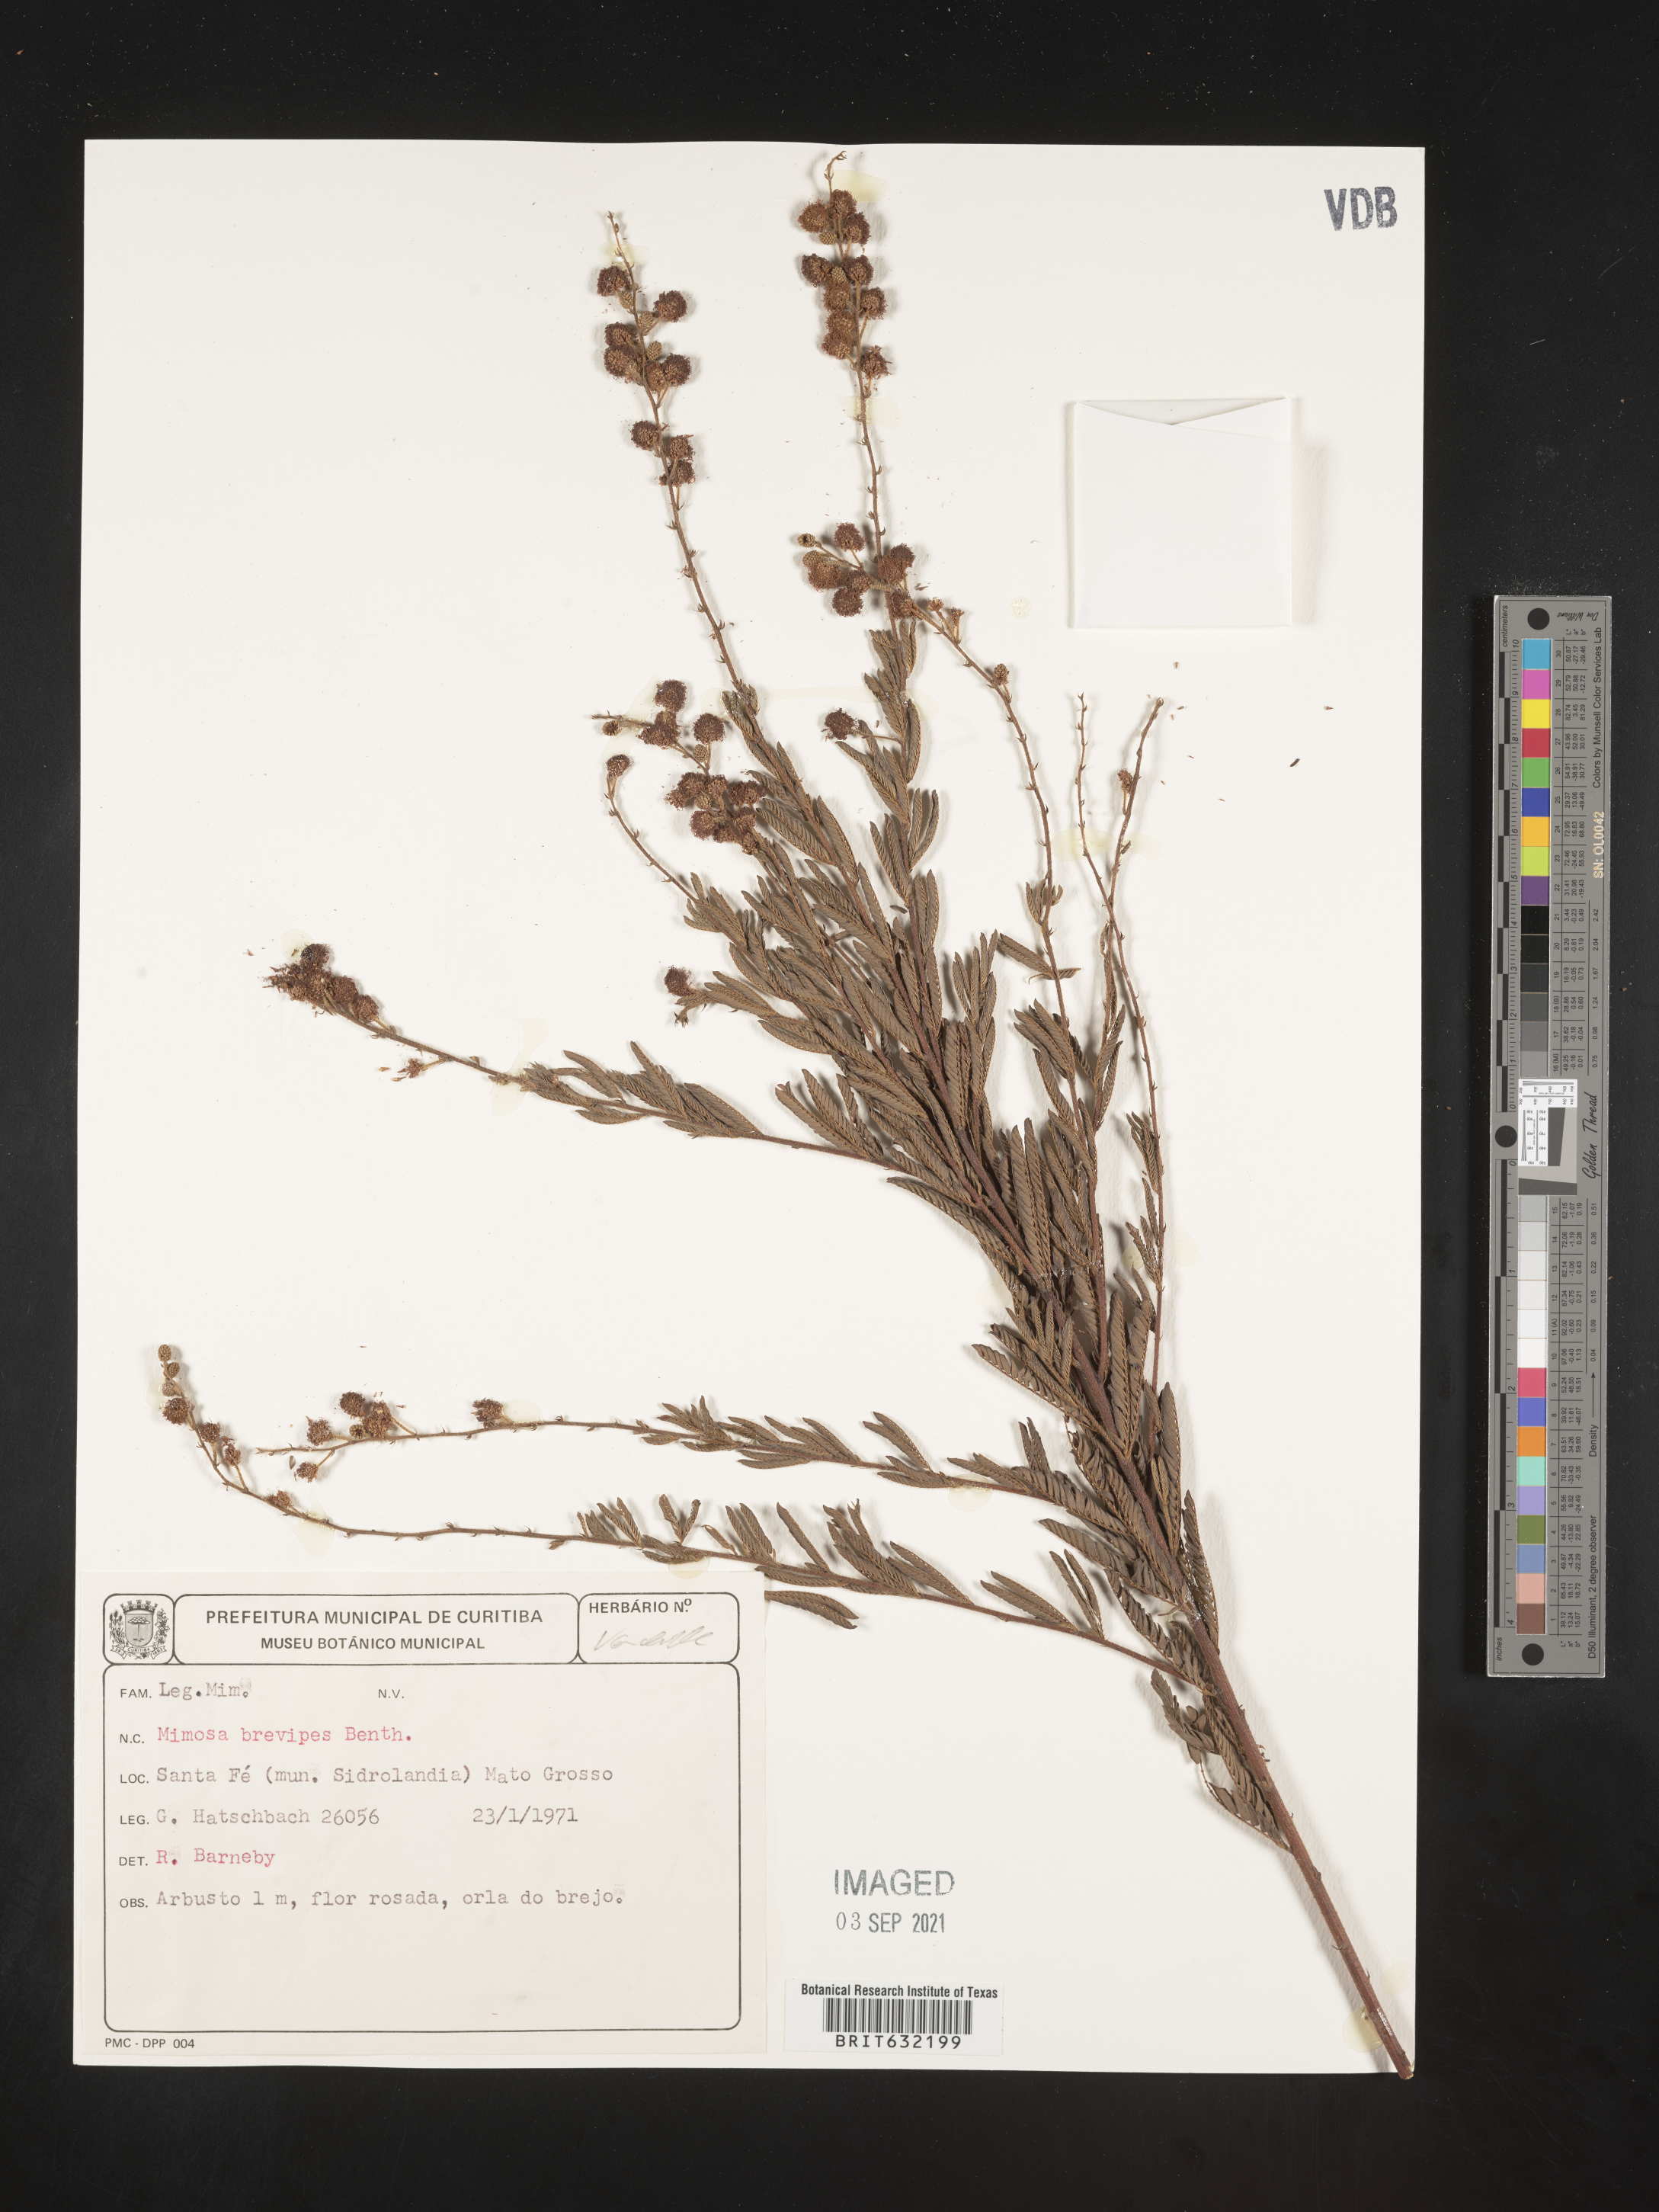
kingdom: Plantae
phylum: Tracheophyta
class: Magnoliopsida
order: Fabales
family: Fabaceae
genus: Mimosa
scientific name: Mimosa
